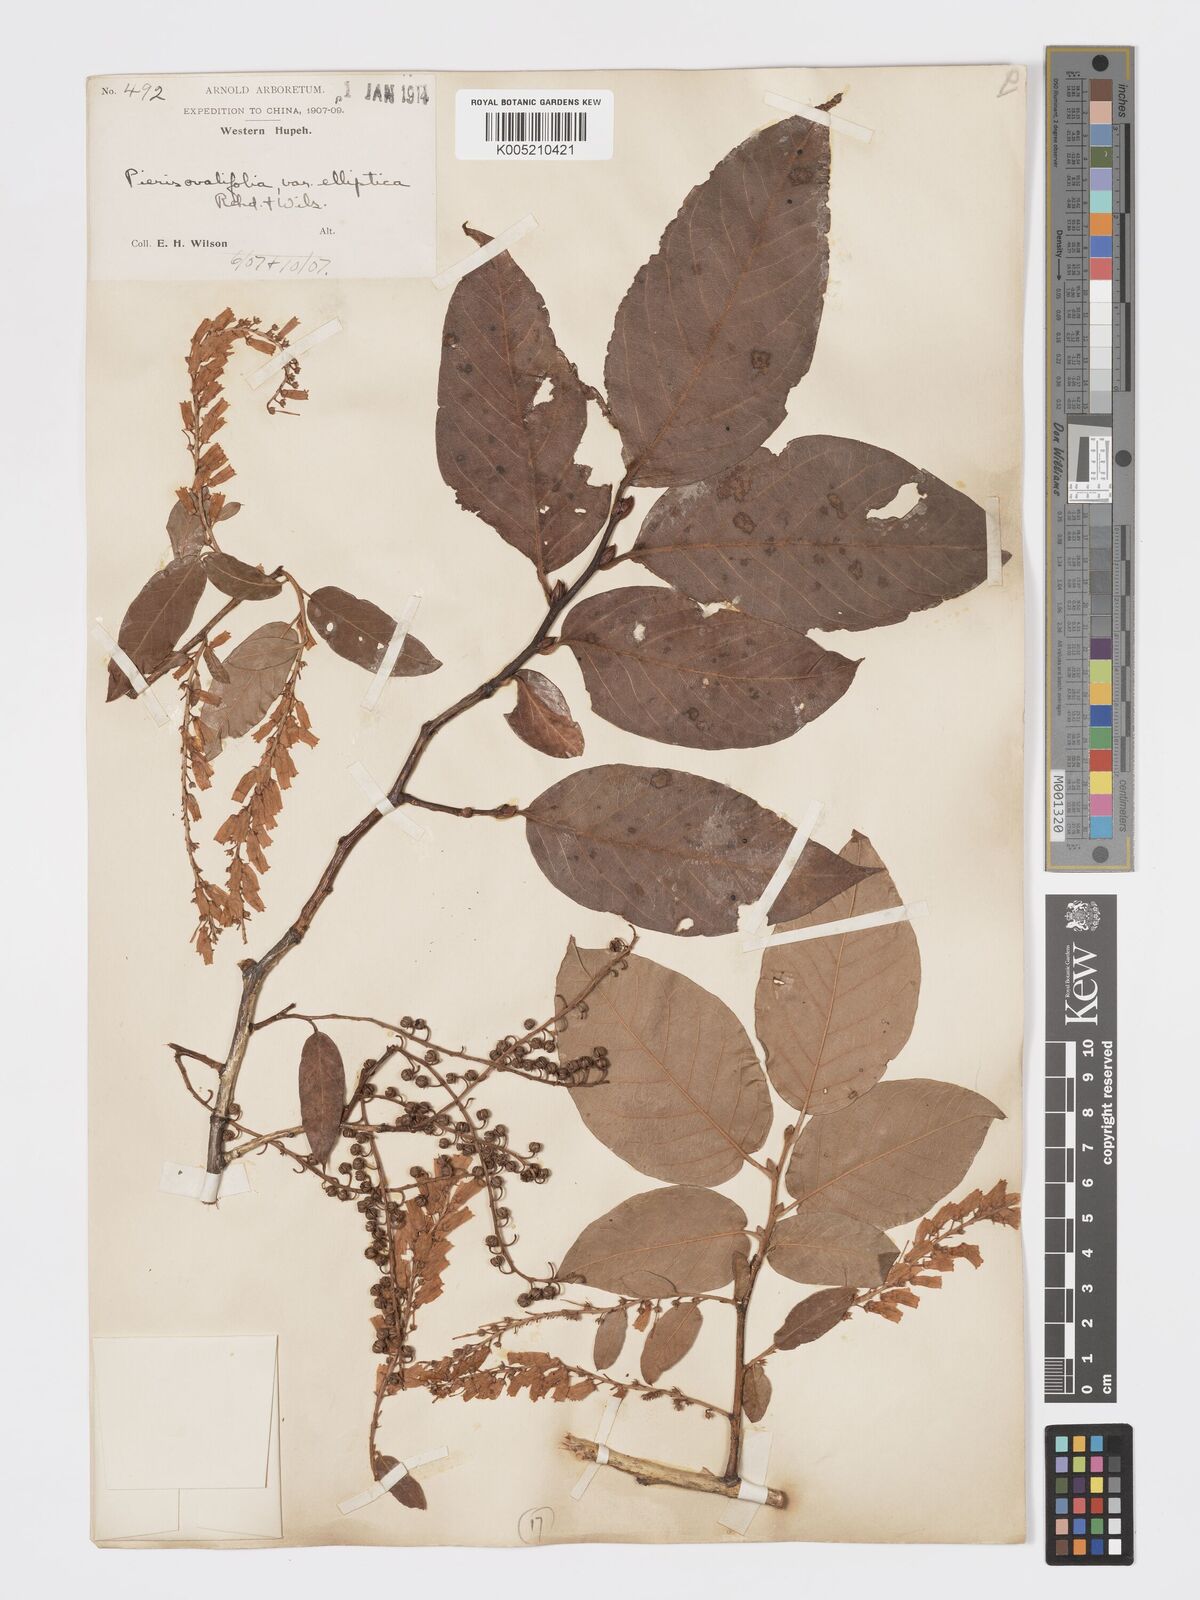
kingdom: Plantae
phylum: Tracheophyta
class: Magnoliopsida
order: Ericales
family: Ericaceae
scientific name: Ericaceae
